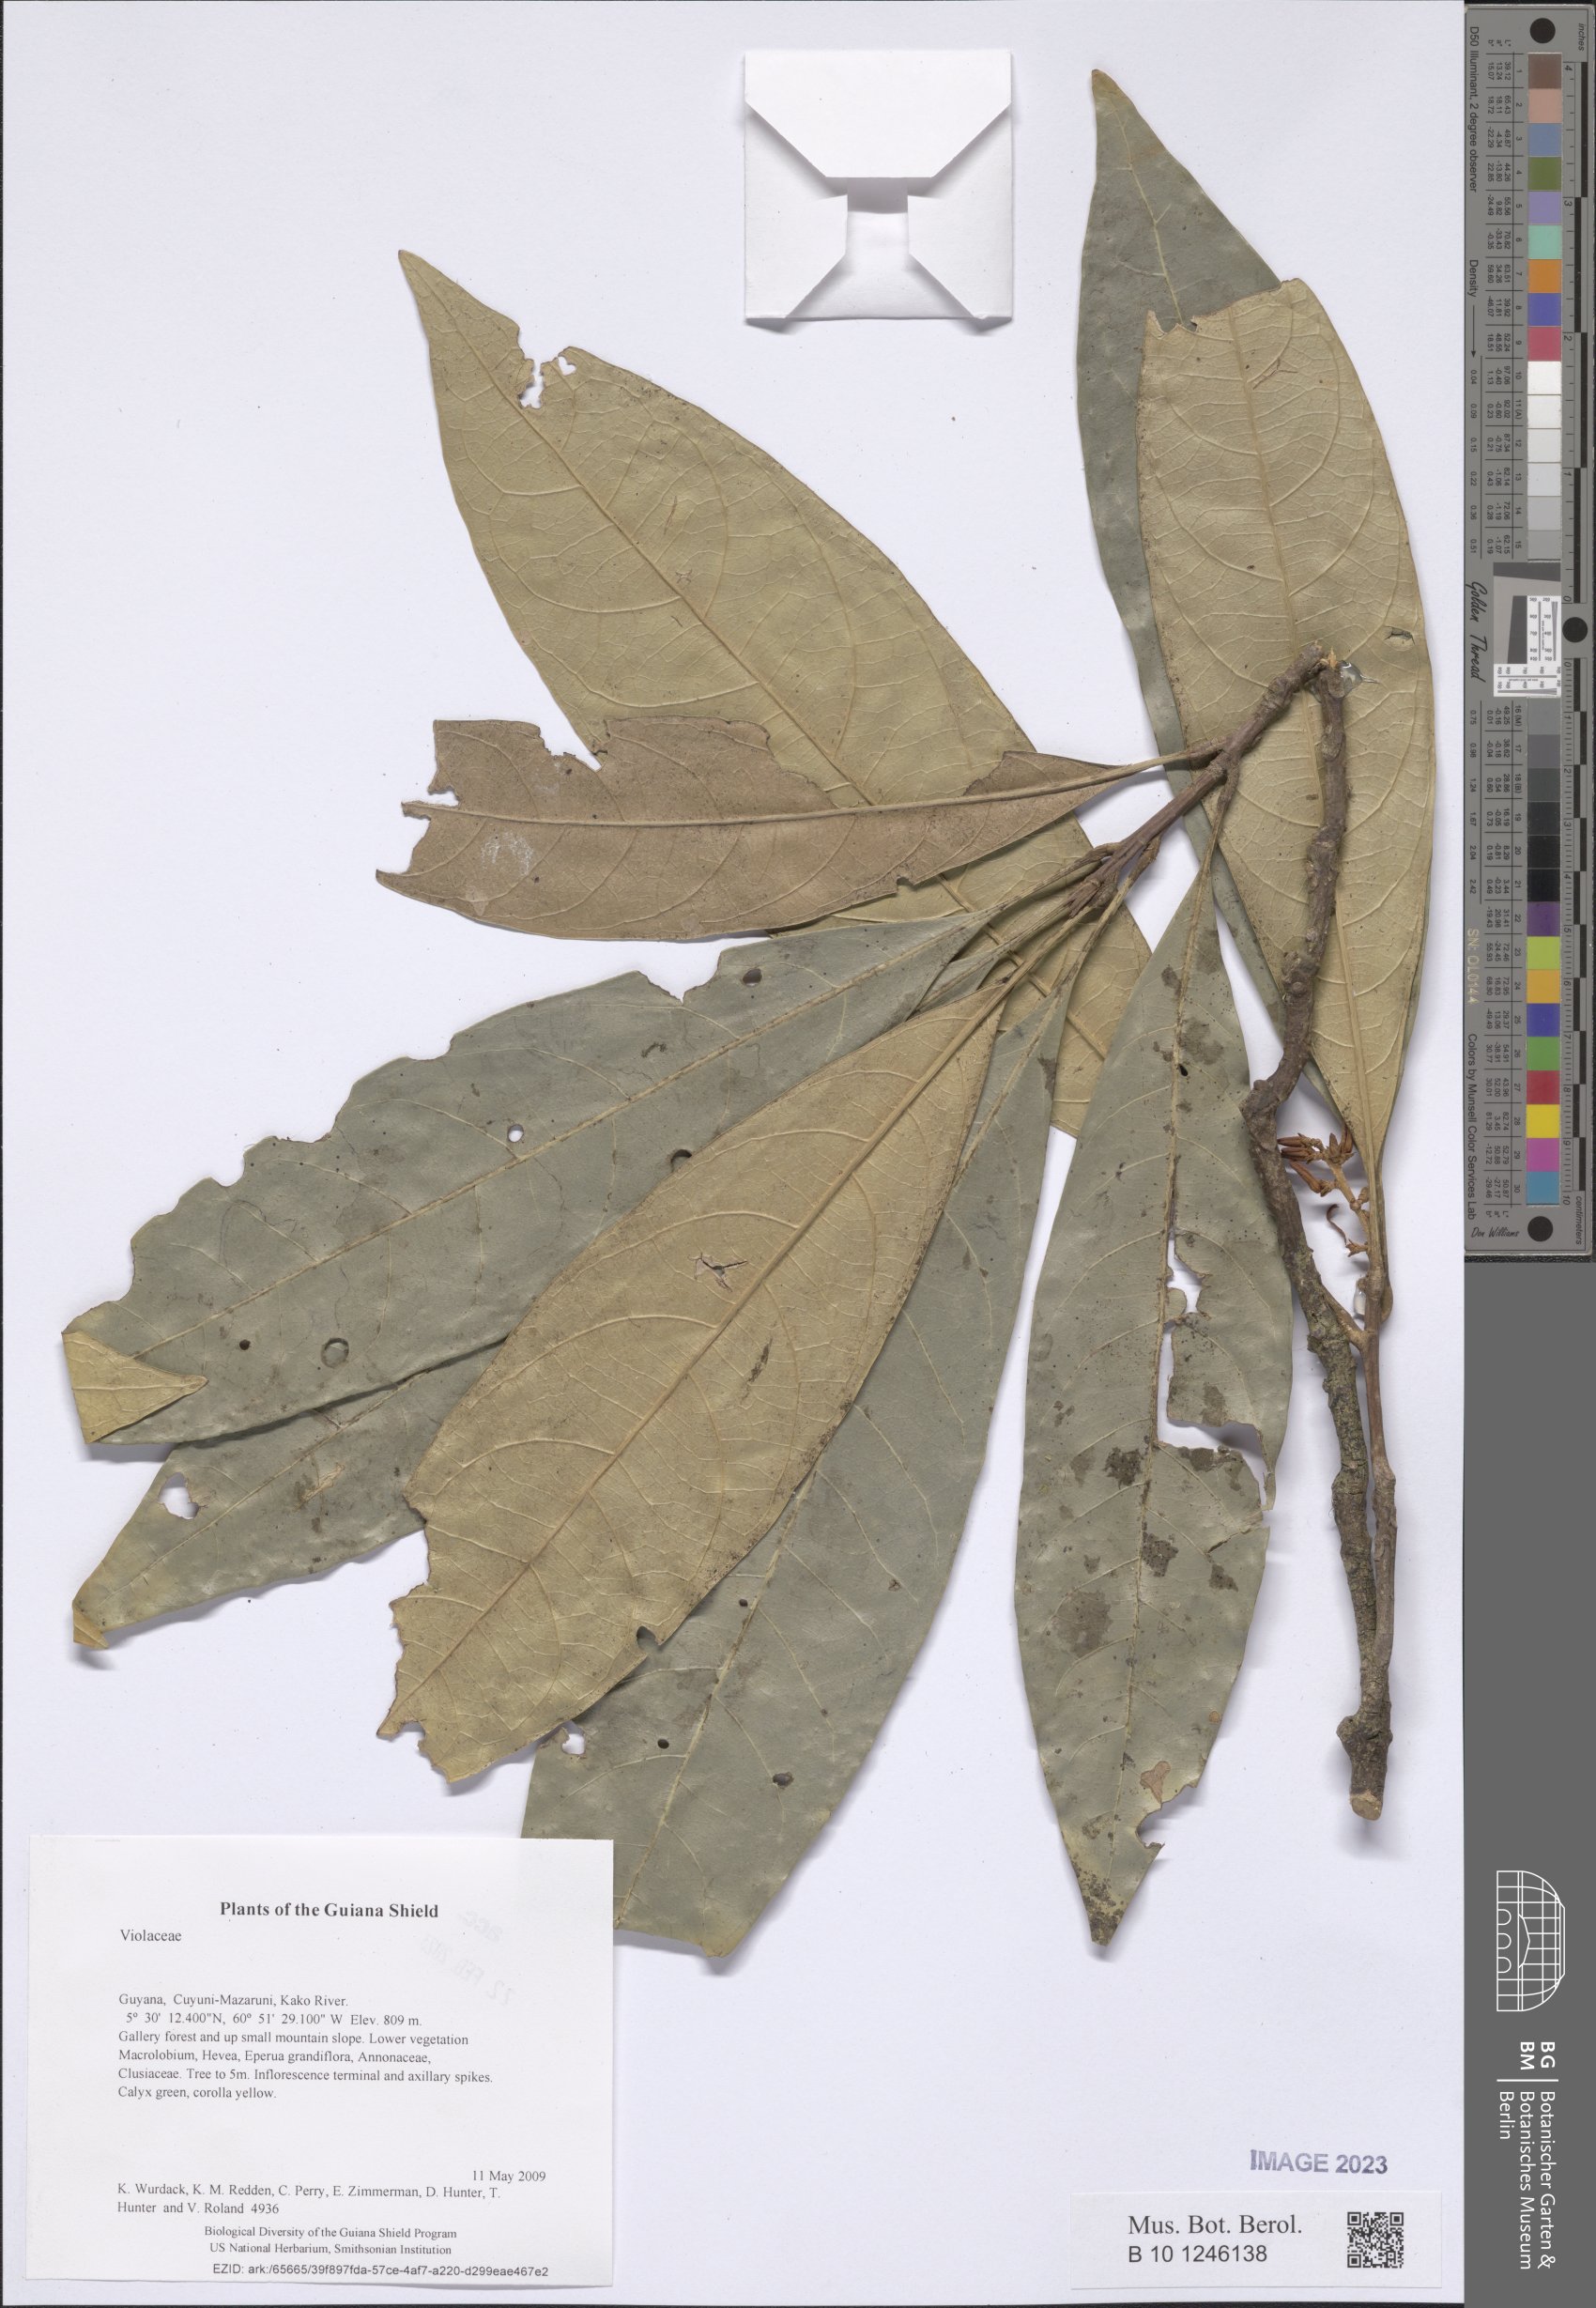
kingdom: Plantae
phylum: Tracheophyta
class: Magnoliopsida
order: Malpighiales
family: Violaceae
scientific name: Violaceae
